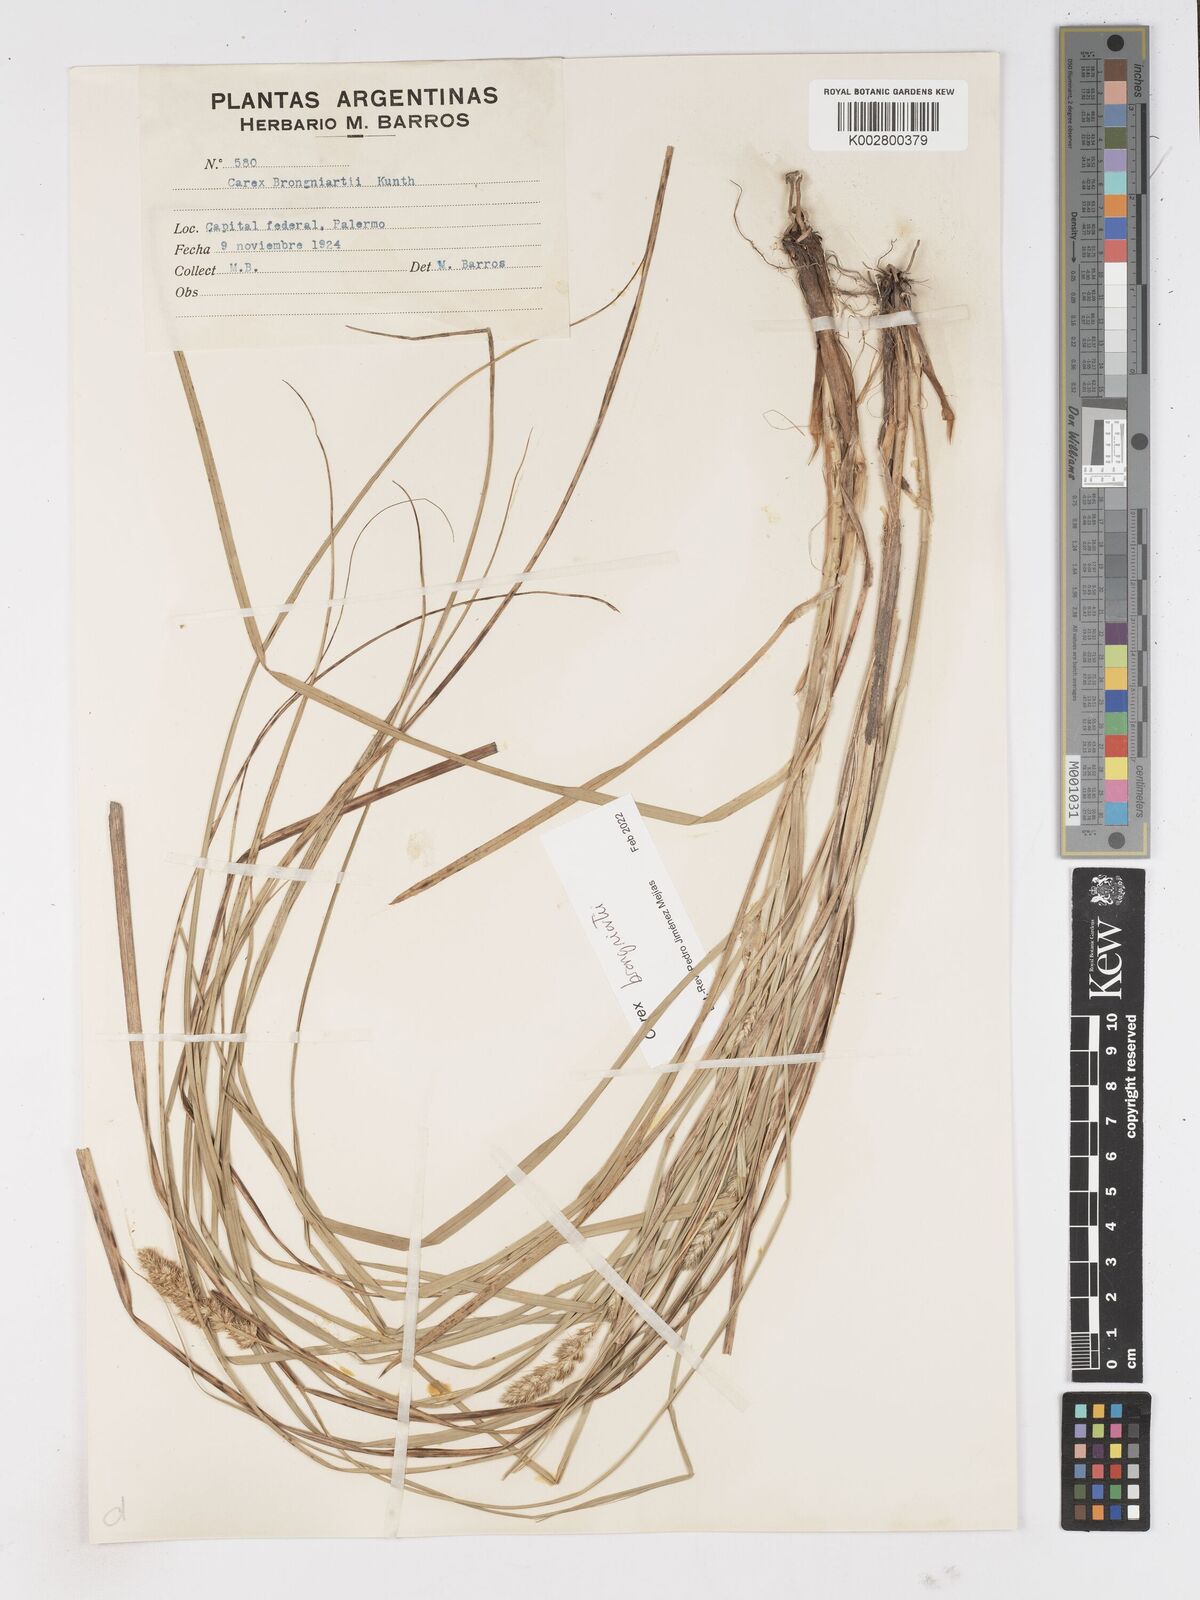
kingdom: Plantae
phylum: Tracheophyta
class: Liliopsida
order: Poales
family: Cyperaceae
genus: Carex
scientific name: Carex brongniartii
